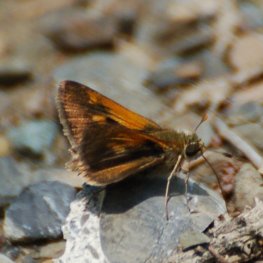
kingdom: Animalia
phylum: Arthropoda
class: Insecta
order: Lepidoptera
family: Hesperiidae
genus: Polites
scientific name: Polites coras
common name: Peck's Skipper
